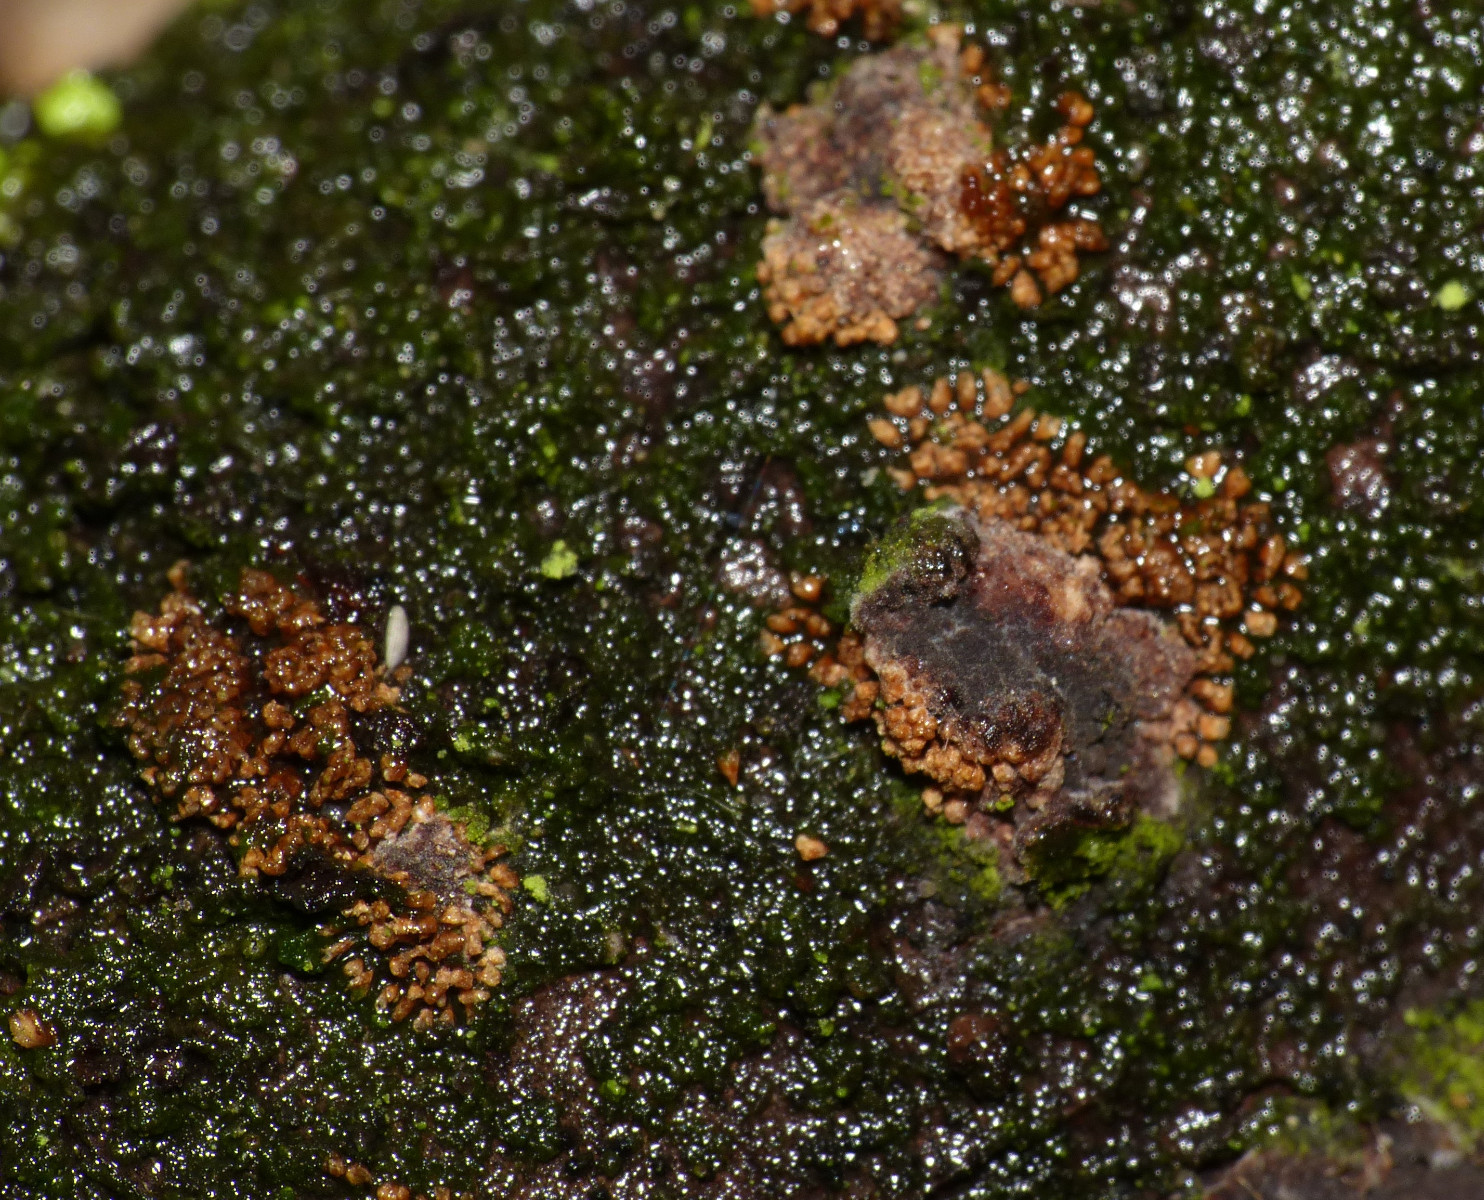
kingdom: Fungi
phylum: Basidiomycota
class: Agaricomycetes
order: Agaricales
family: Niaceae
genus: Merismodes
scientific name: Merismodes
